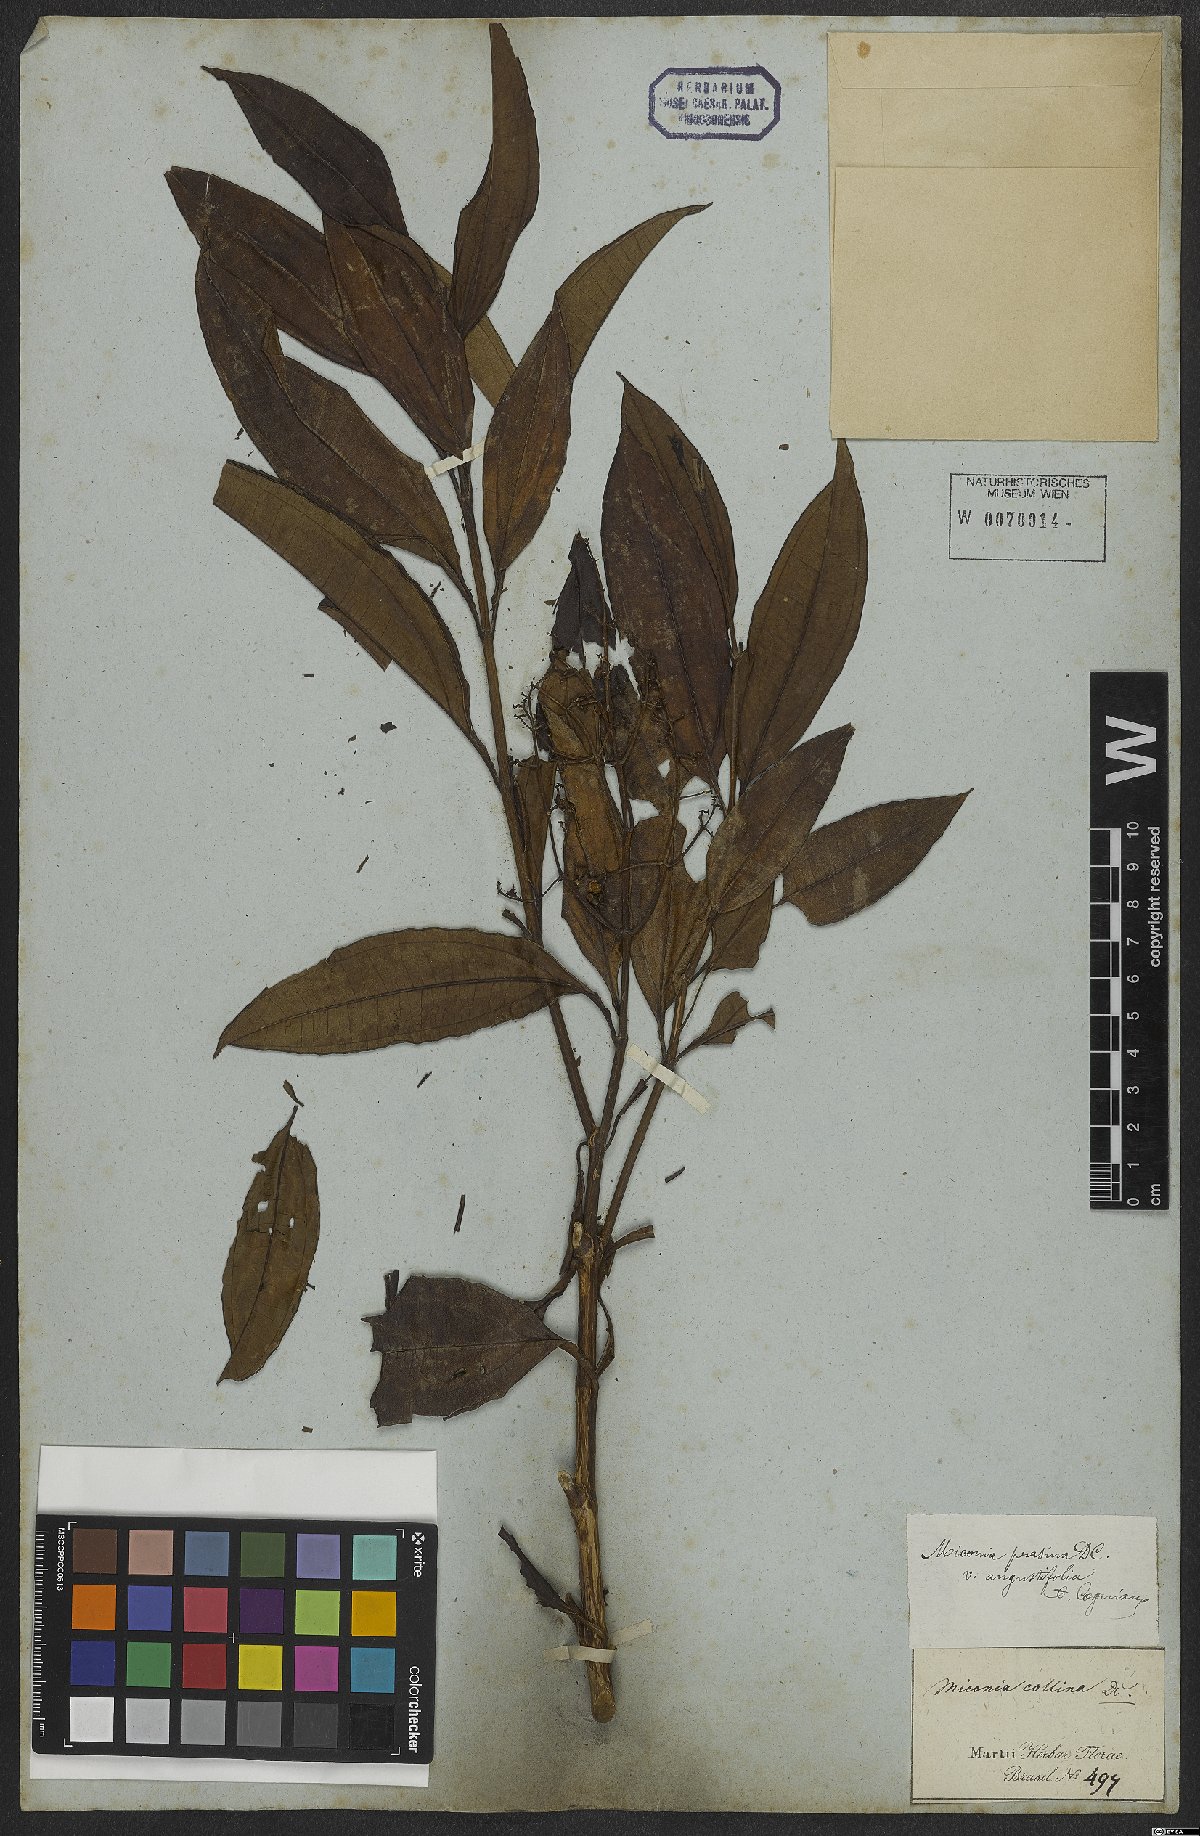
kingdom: Plantae
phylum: Tracheophyta
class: Magnoliopsida
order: Myrtales
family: Melastomataceae
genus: Miconia
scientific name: Miconia prasina
